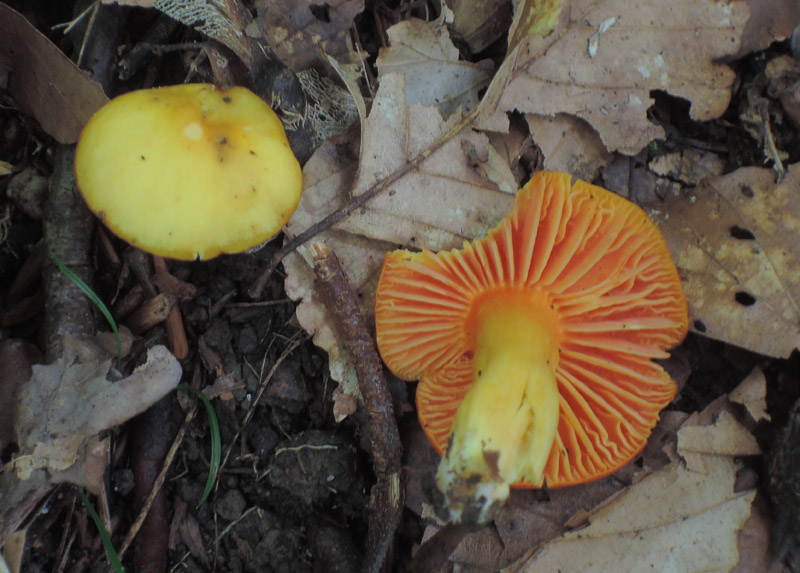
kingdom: Fungi
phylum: Basidiomycota
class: Agaricomycetes
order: Agaricales
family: Hygrophoraceae
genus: Hygrocybe
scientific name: Hygrocybe quieta
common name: tæge-vokshat
